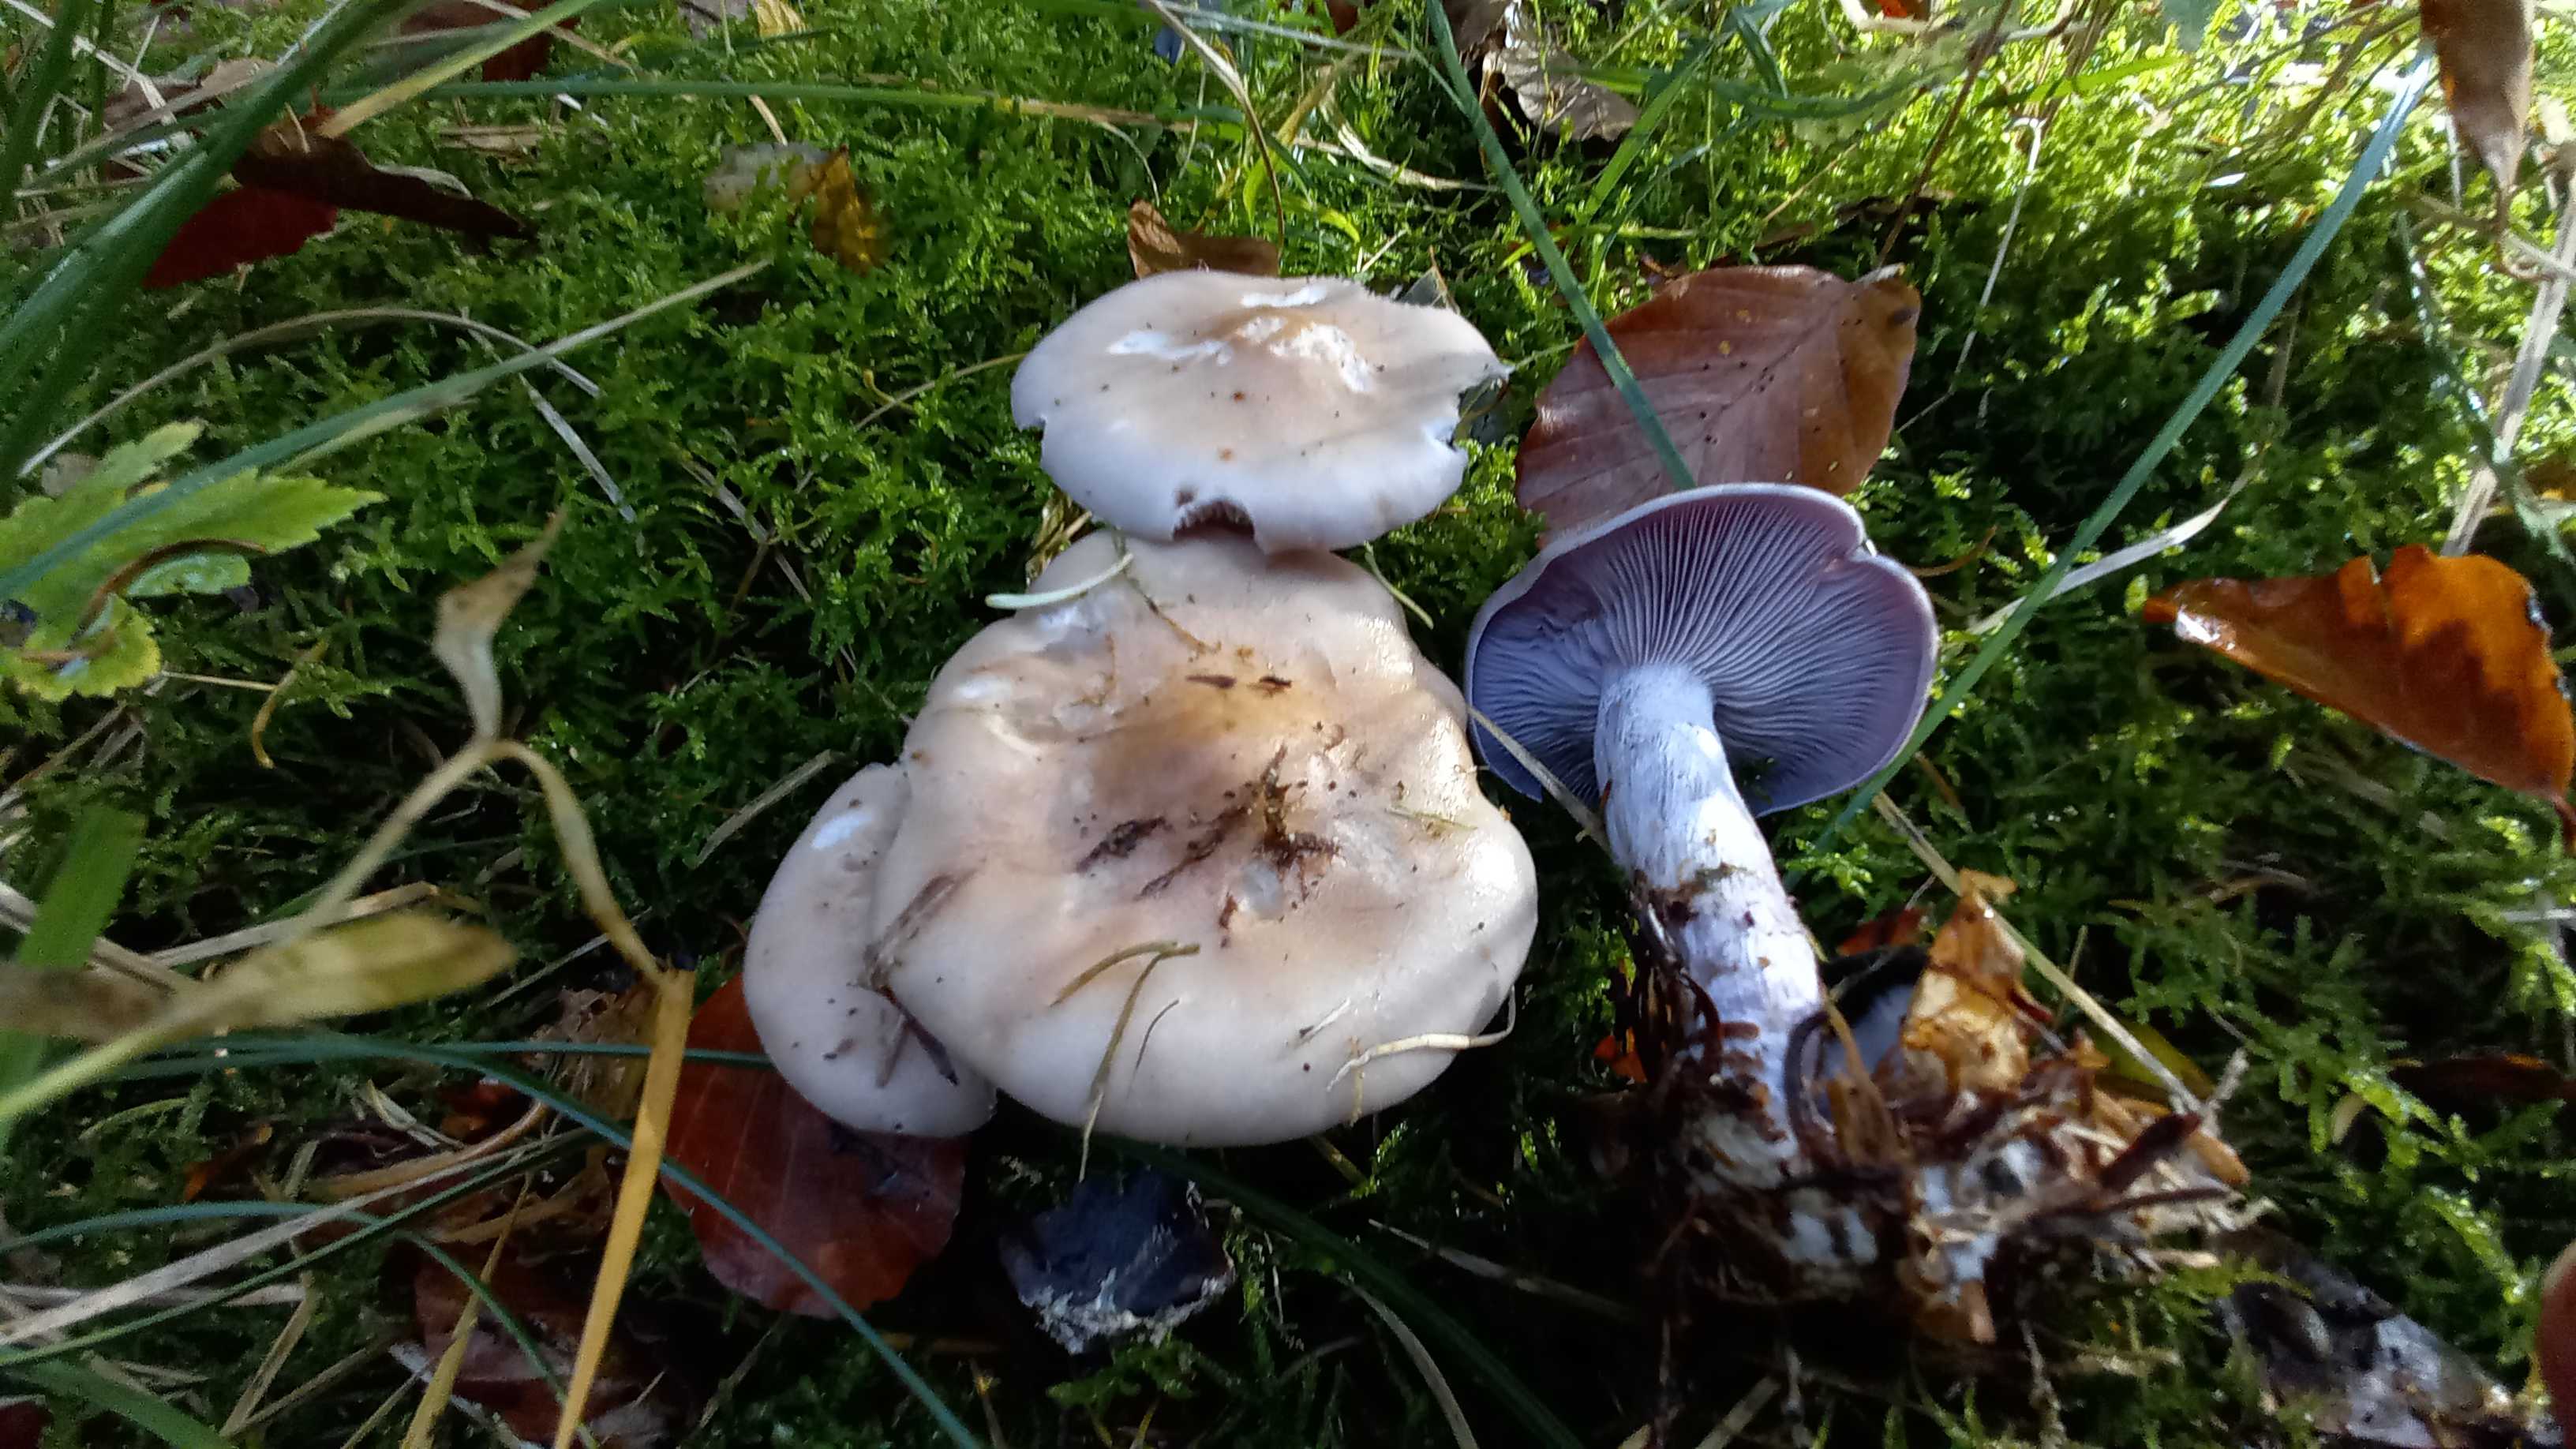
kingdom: Fungi
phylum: Basidiomycota
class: Agaricomycetes
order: Agaricales
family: Tricholomataceae
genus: Lepista
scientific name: Lepista nuda
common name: violet hekseringshat
